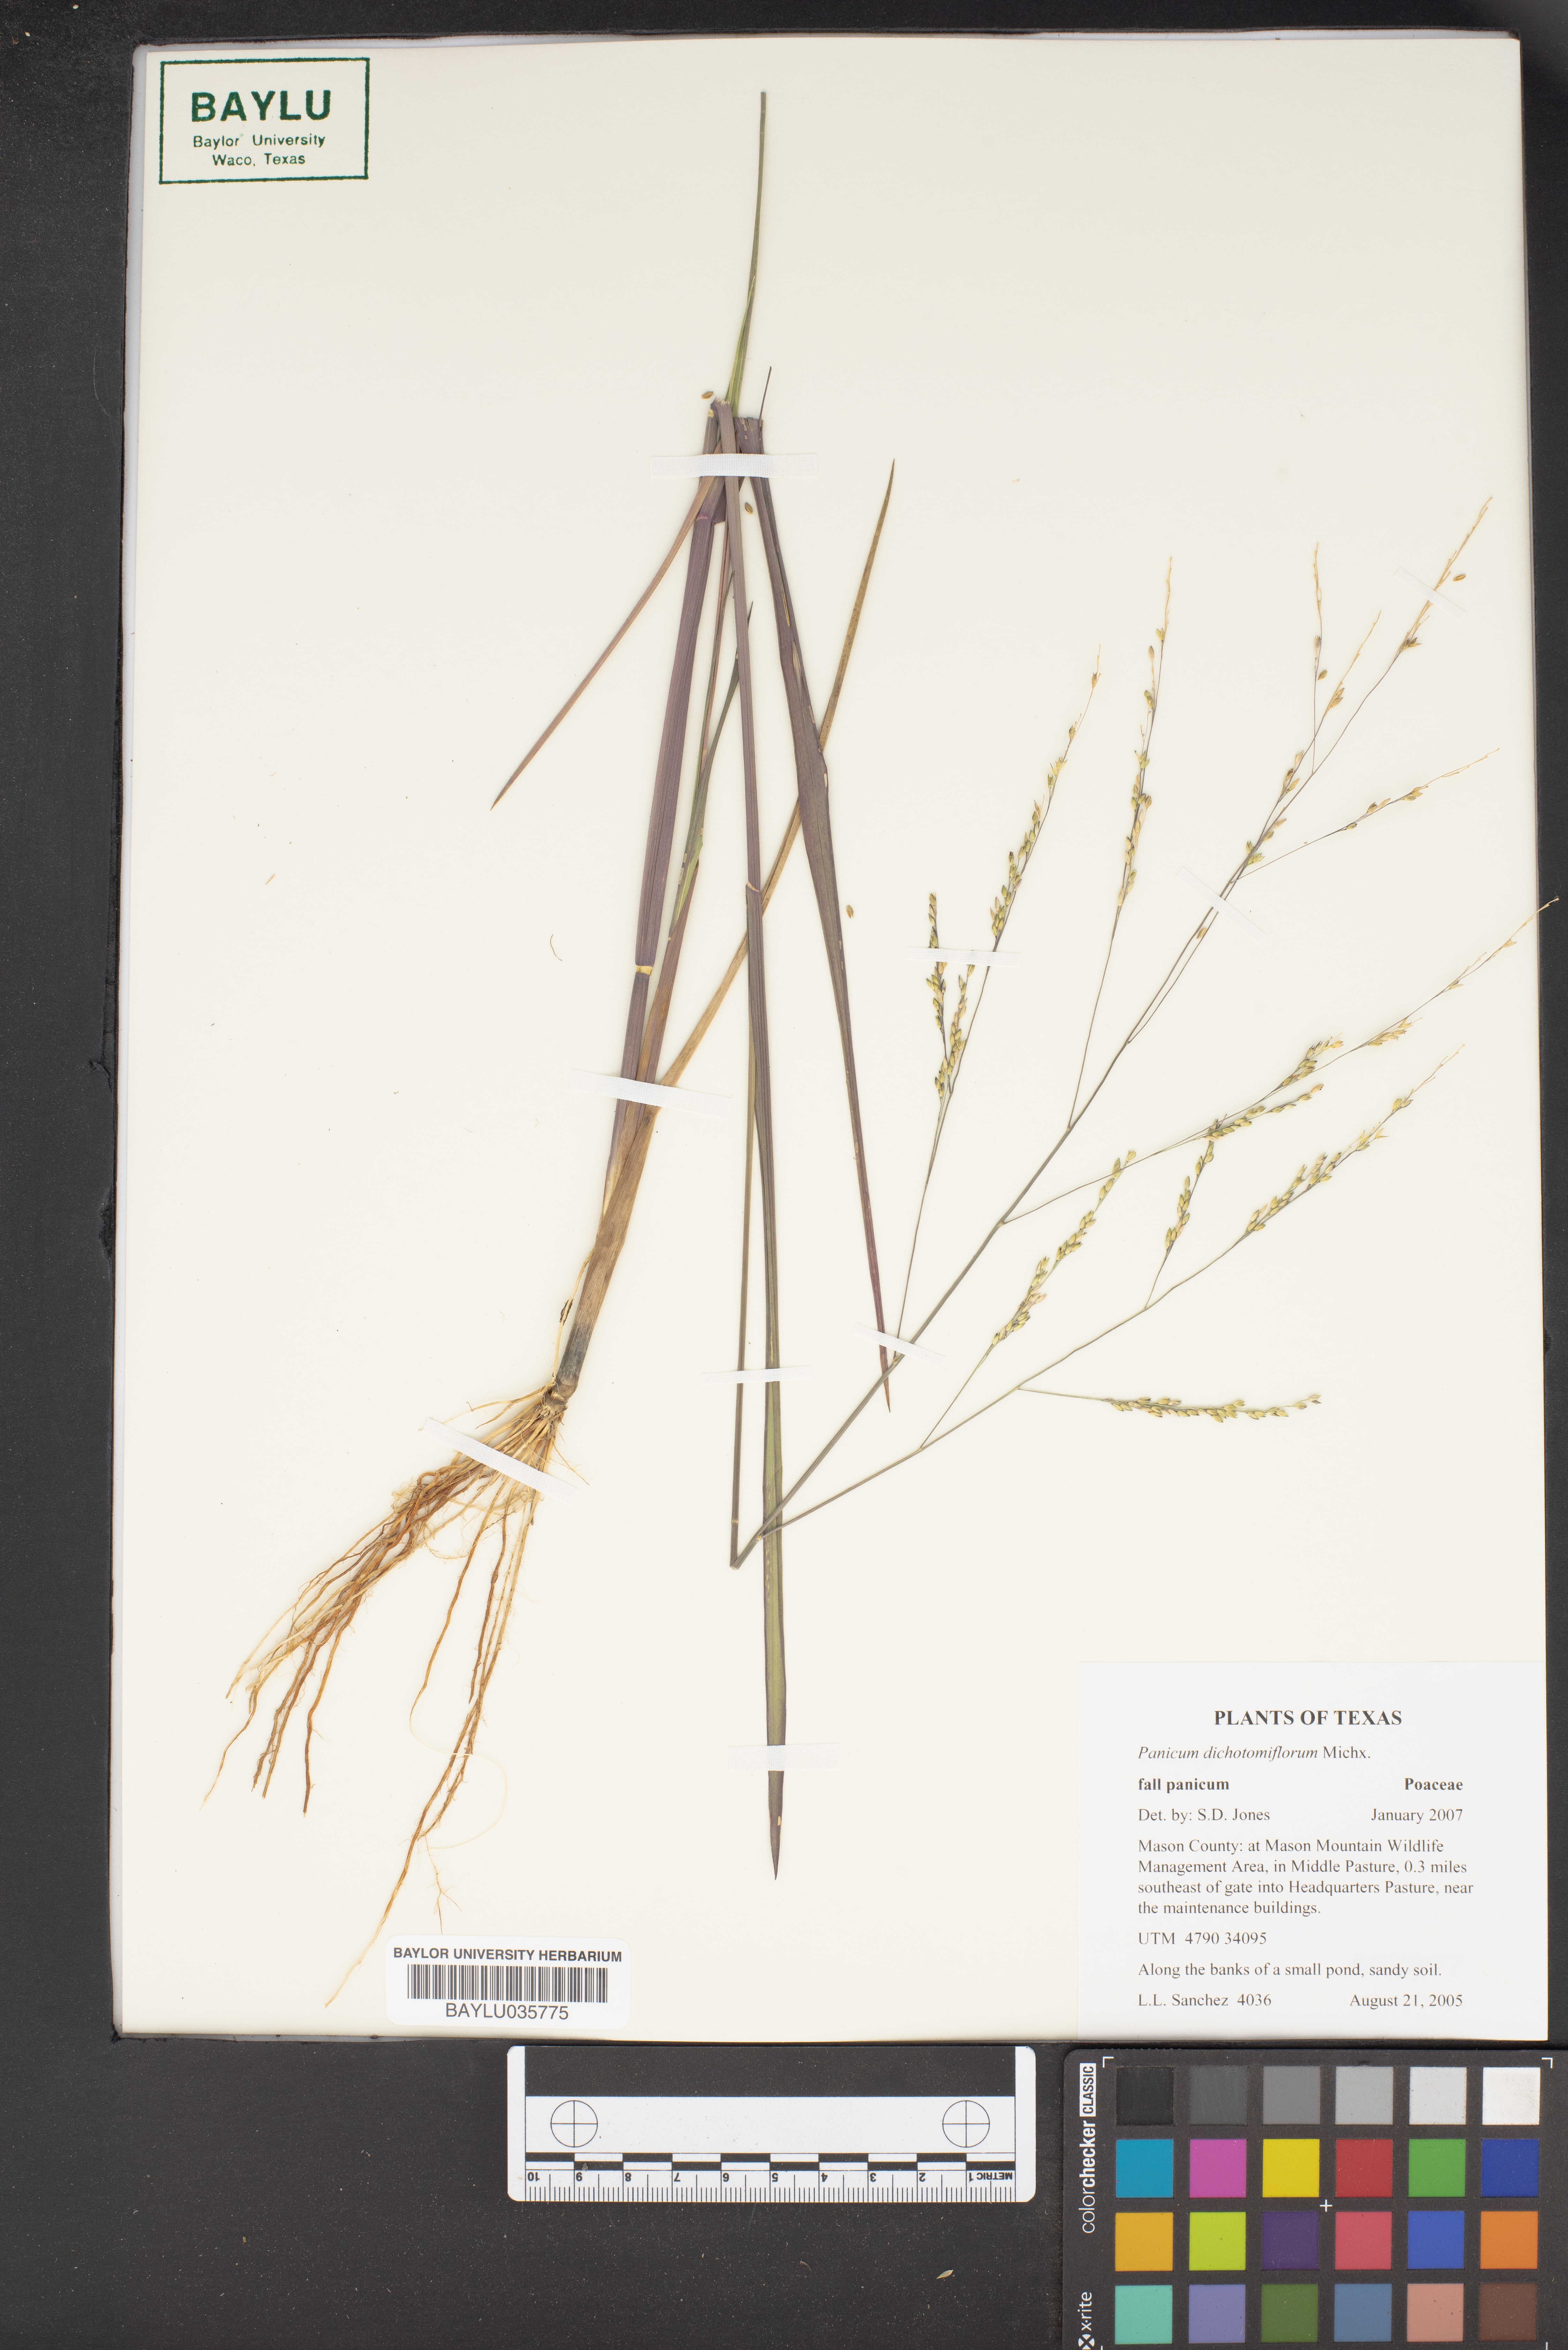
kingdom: Plantae
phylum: Tracheophyta
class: Liliopsida
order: Poales
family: Poaceae
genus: Panicum
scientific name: Panicum dichotomiflorum
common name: Autumn millet
